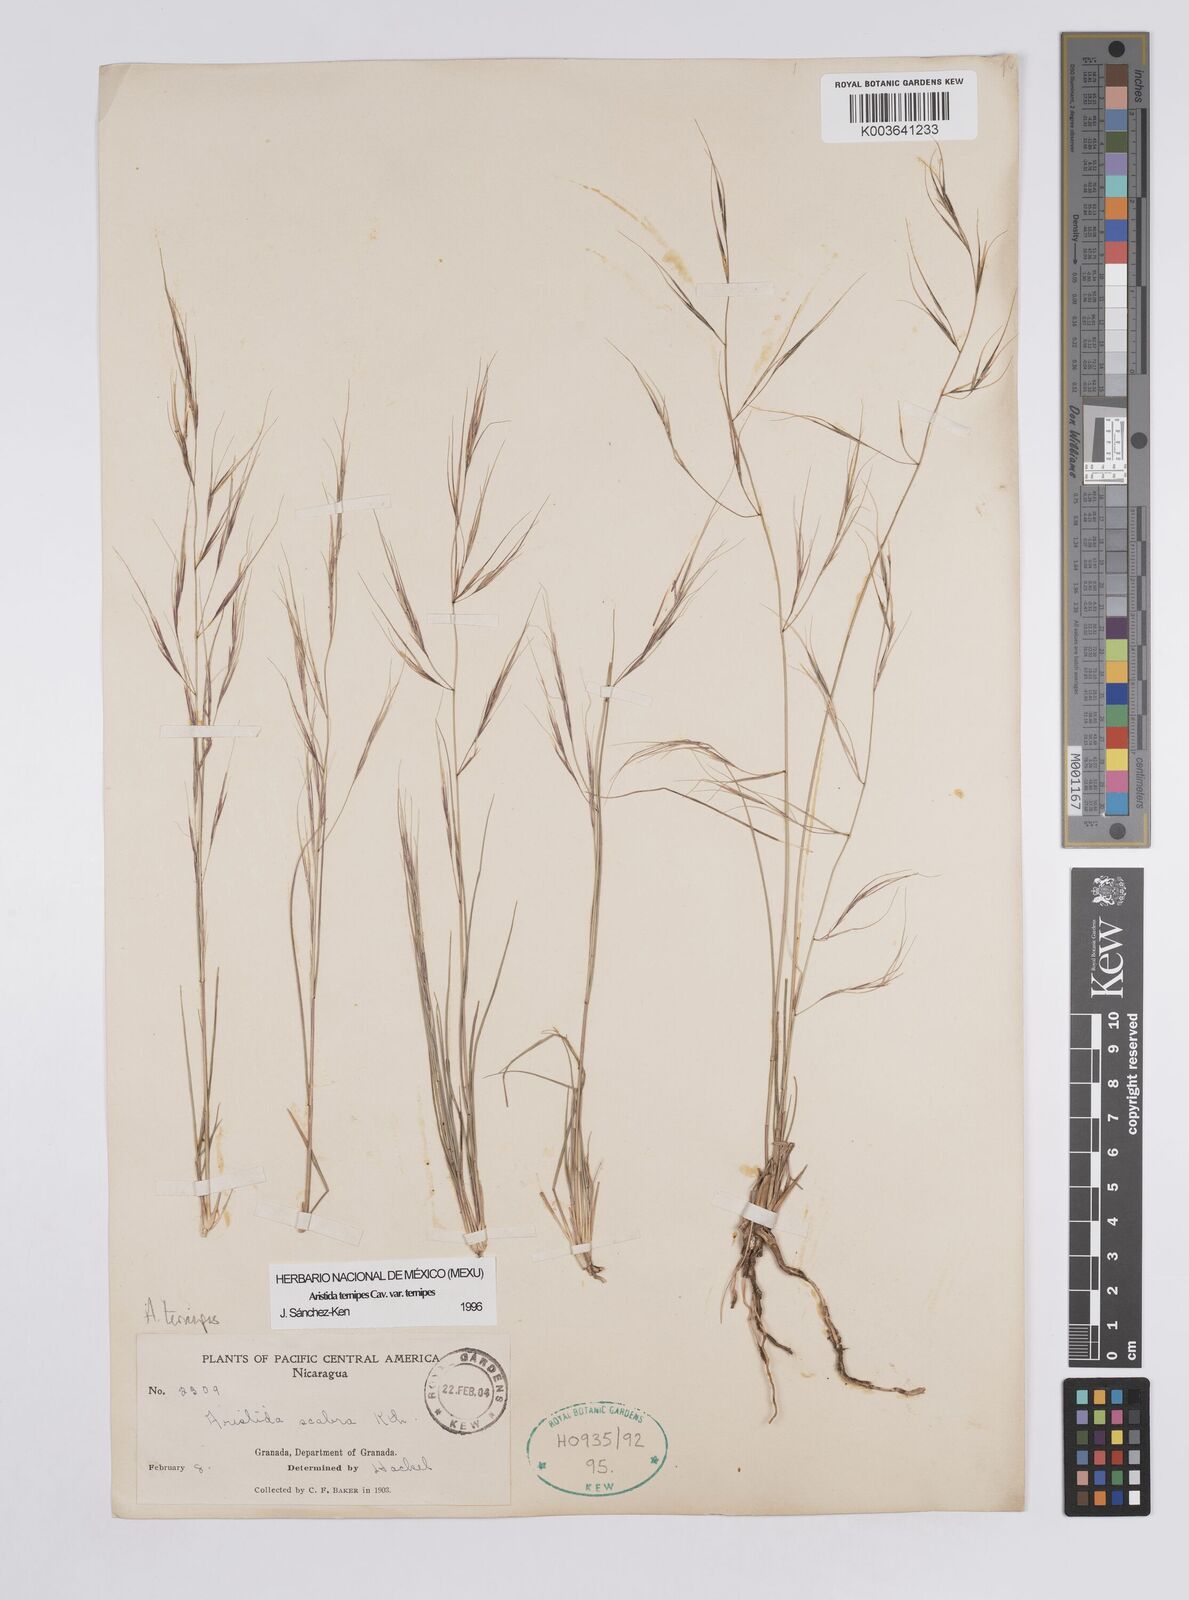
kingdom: Plantae
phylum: Tracheophyta
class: Liliopsida
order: Poales
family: Poaceae
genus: Aristida
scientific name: Aristida
